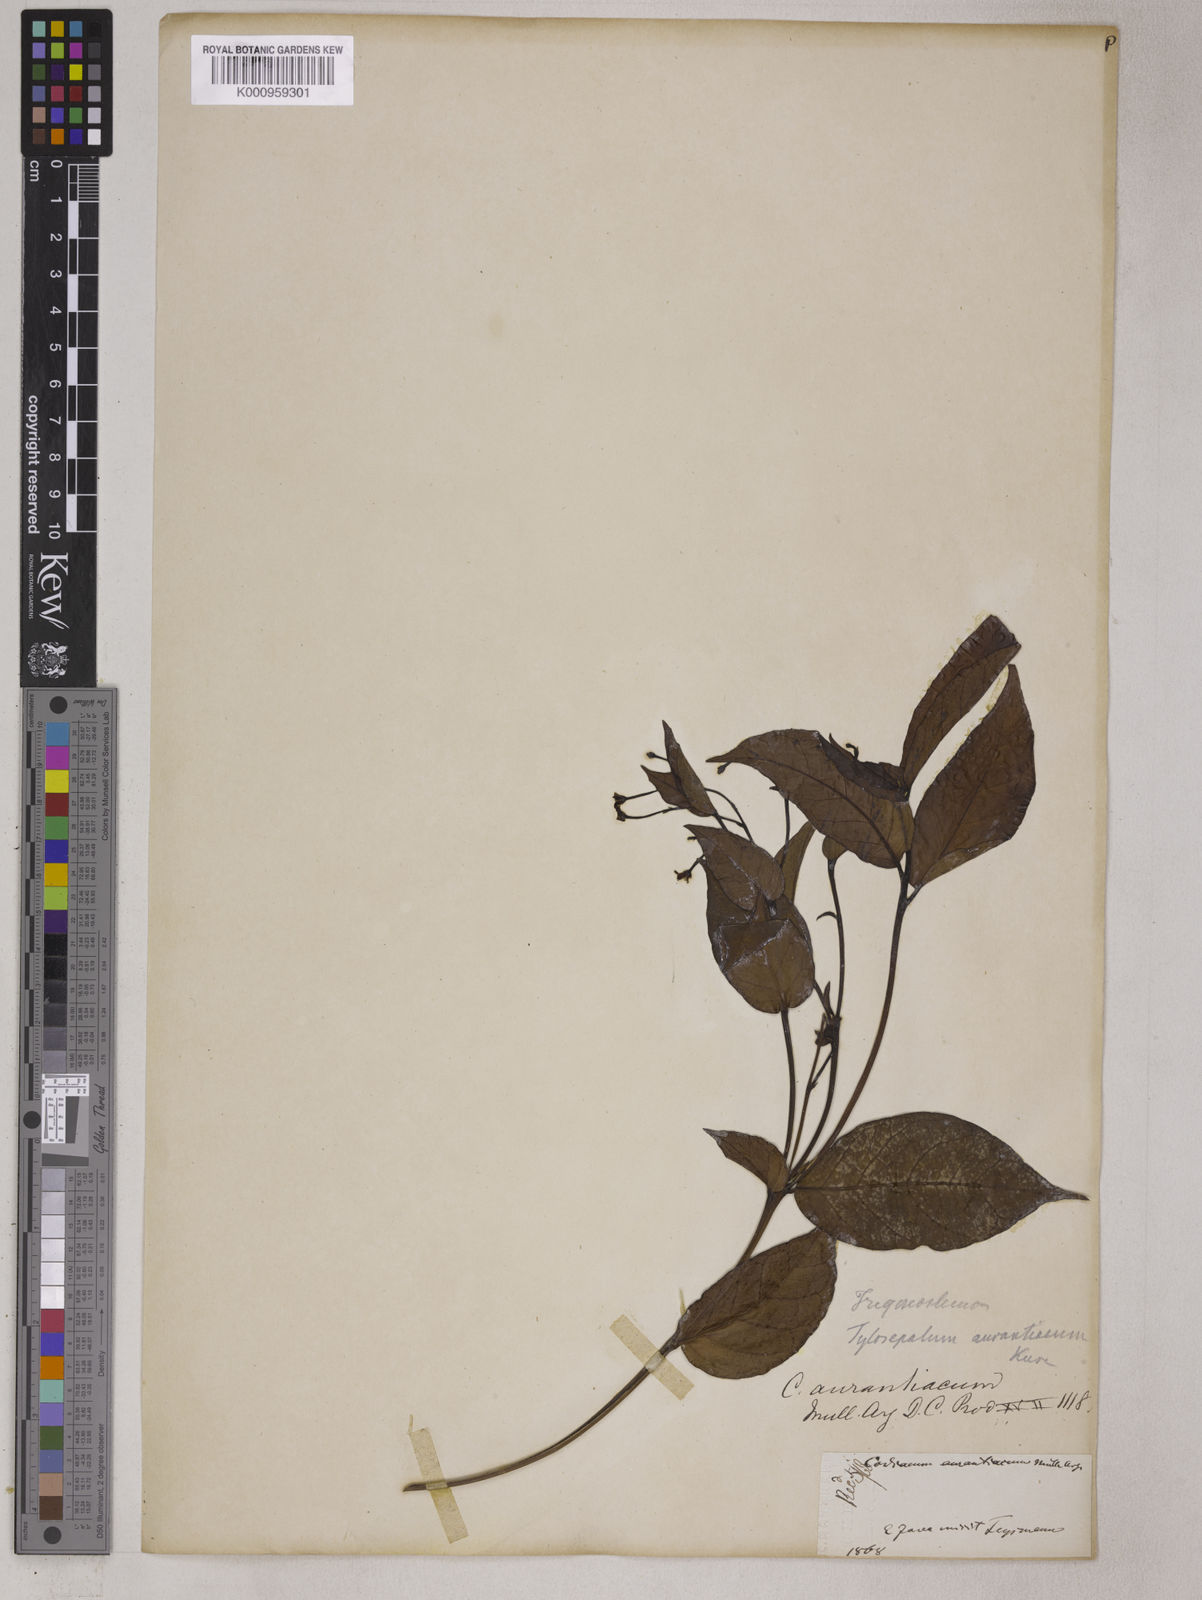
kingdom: Plantae
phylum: Tracheophyta
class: Magnoliopsida
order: Malpighiales
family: Euphorbiaceae
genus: Trigonostemon
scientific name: Trigonostemon aurantiacus
